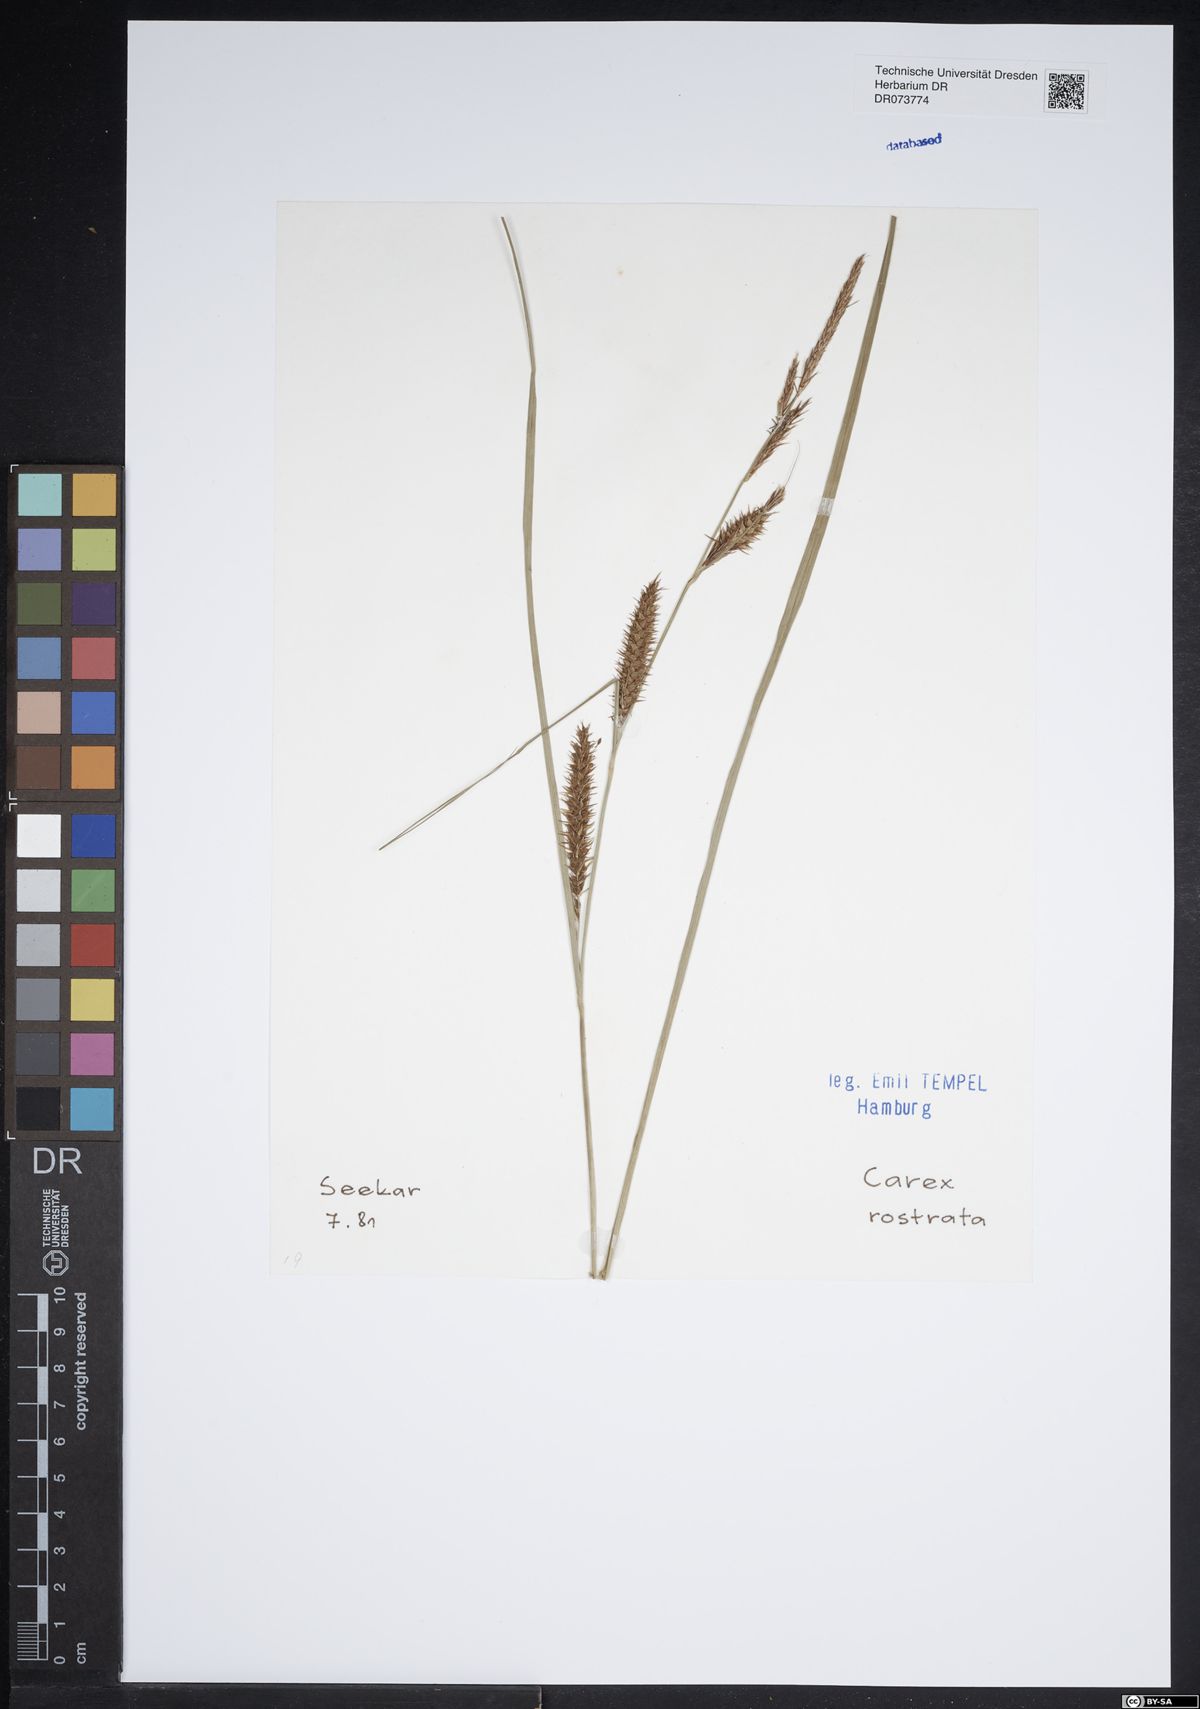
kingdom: Plantae
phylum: Tracheophyta
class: Liliopsida
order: Poales
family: Cyperaceae
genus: Carex
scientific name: Carex rostrata
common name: Bottle sedge
